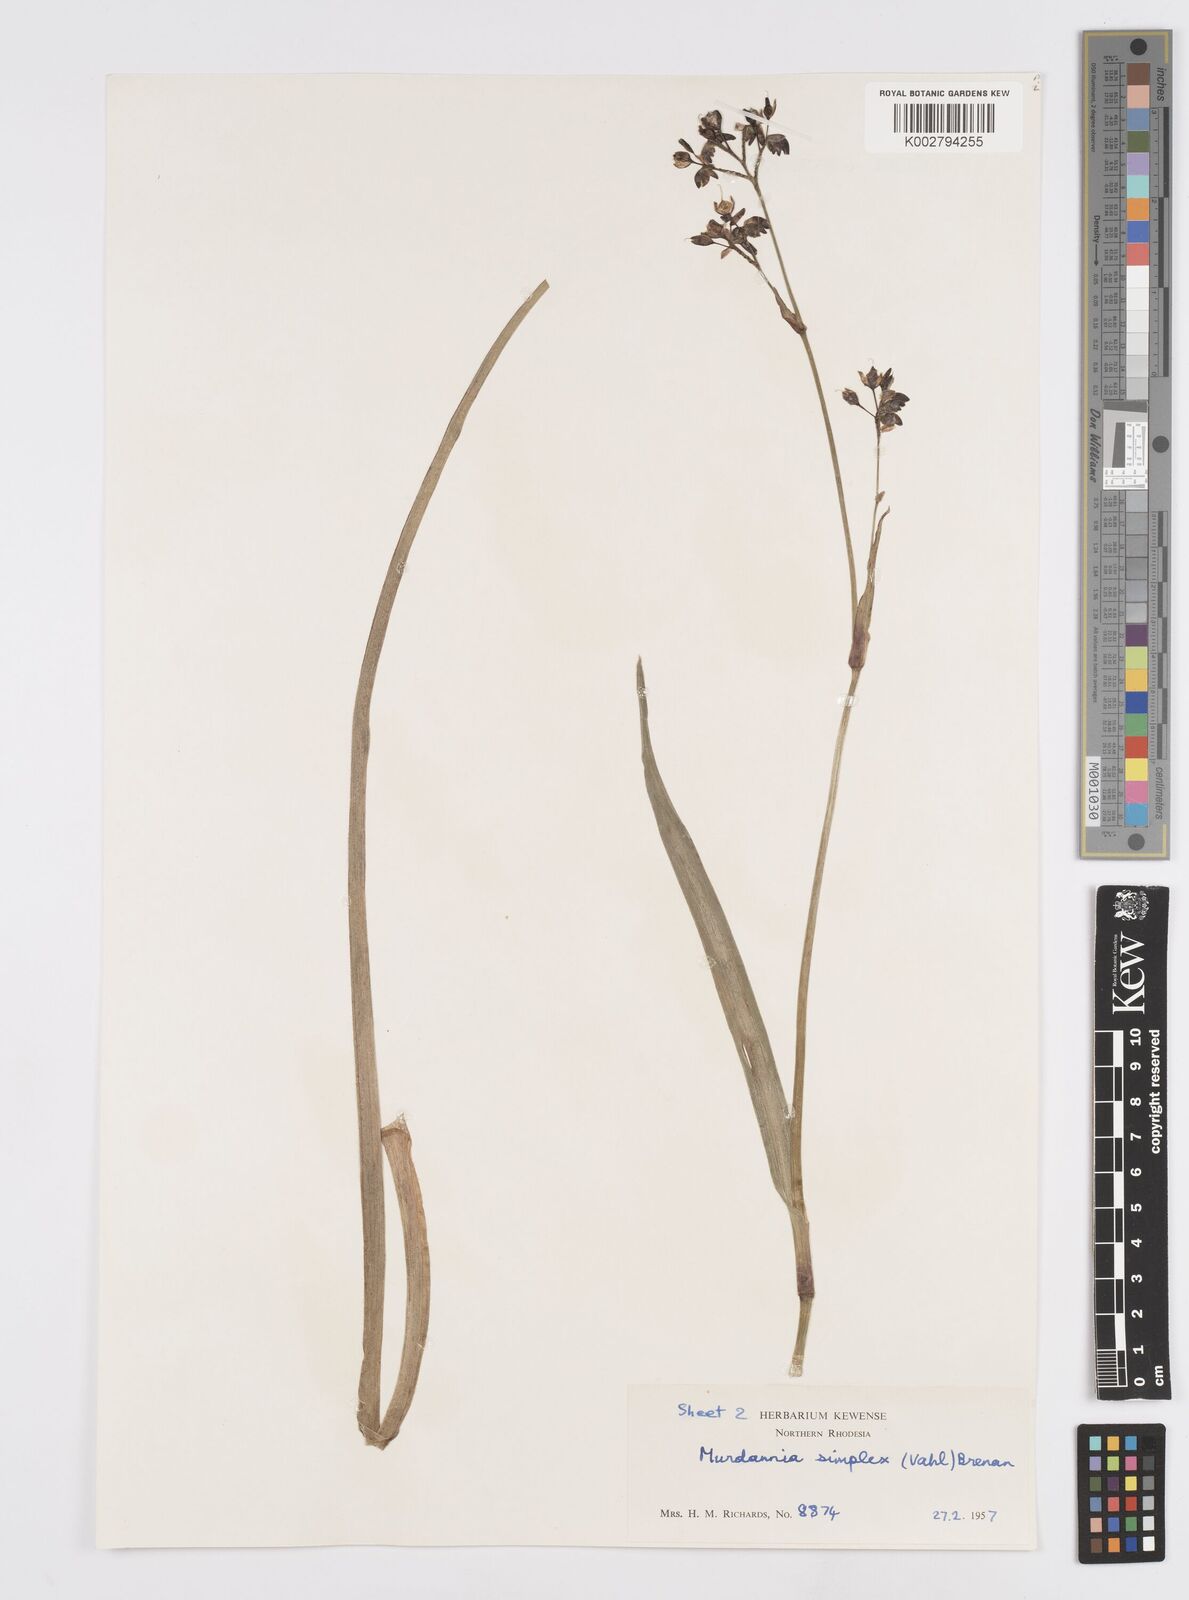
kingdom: Plantae
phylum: Tracheophyta
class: Liliopsida
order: Commelinales
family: Commelinaceae
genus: Murdannia
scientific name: Murdannia simplex
